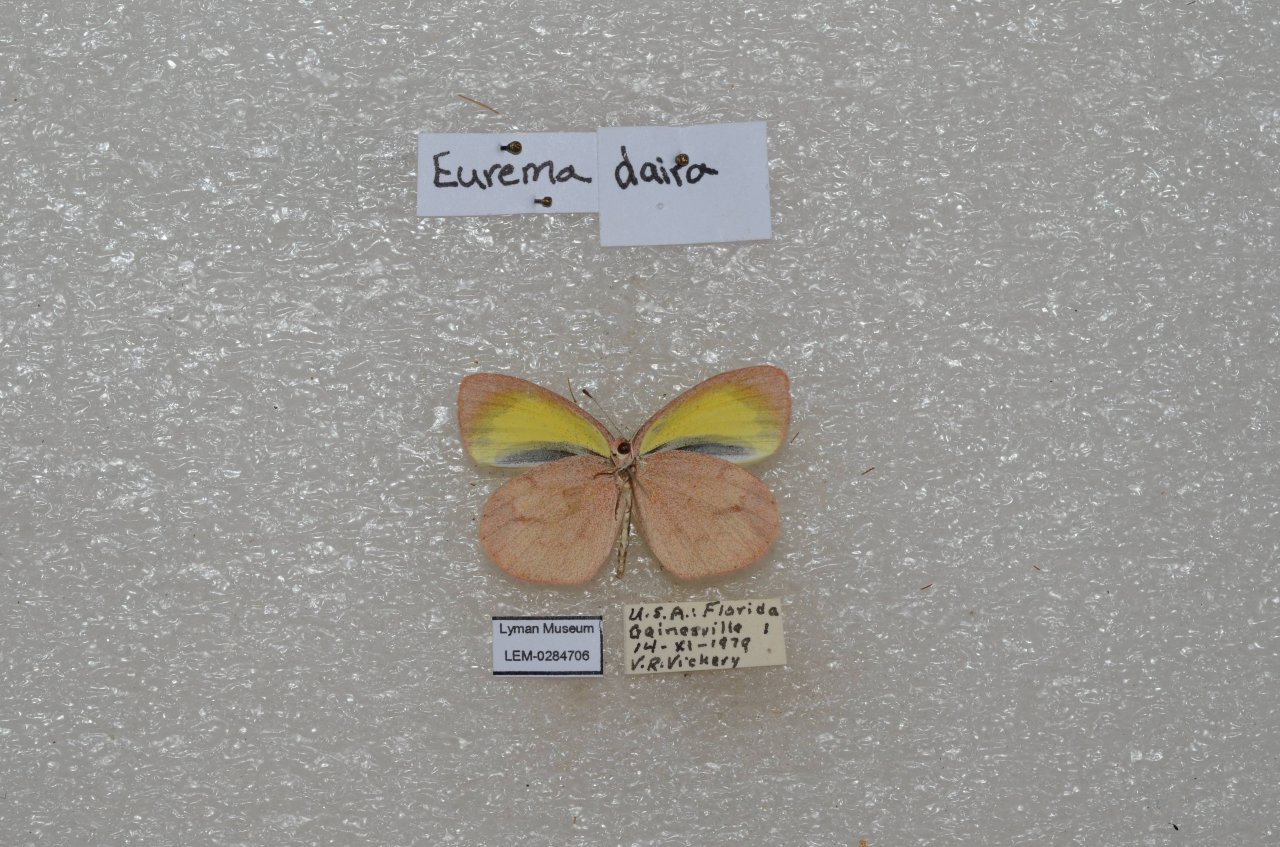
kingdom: Animalia
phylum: Arthropoda
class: Insecta
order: Lepidoptera
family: Pieridae
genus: Eurema
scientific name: Eurema daira
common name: Barred Yellow
